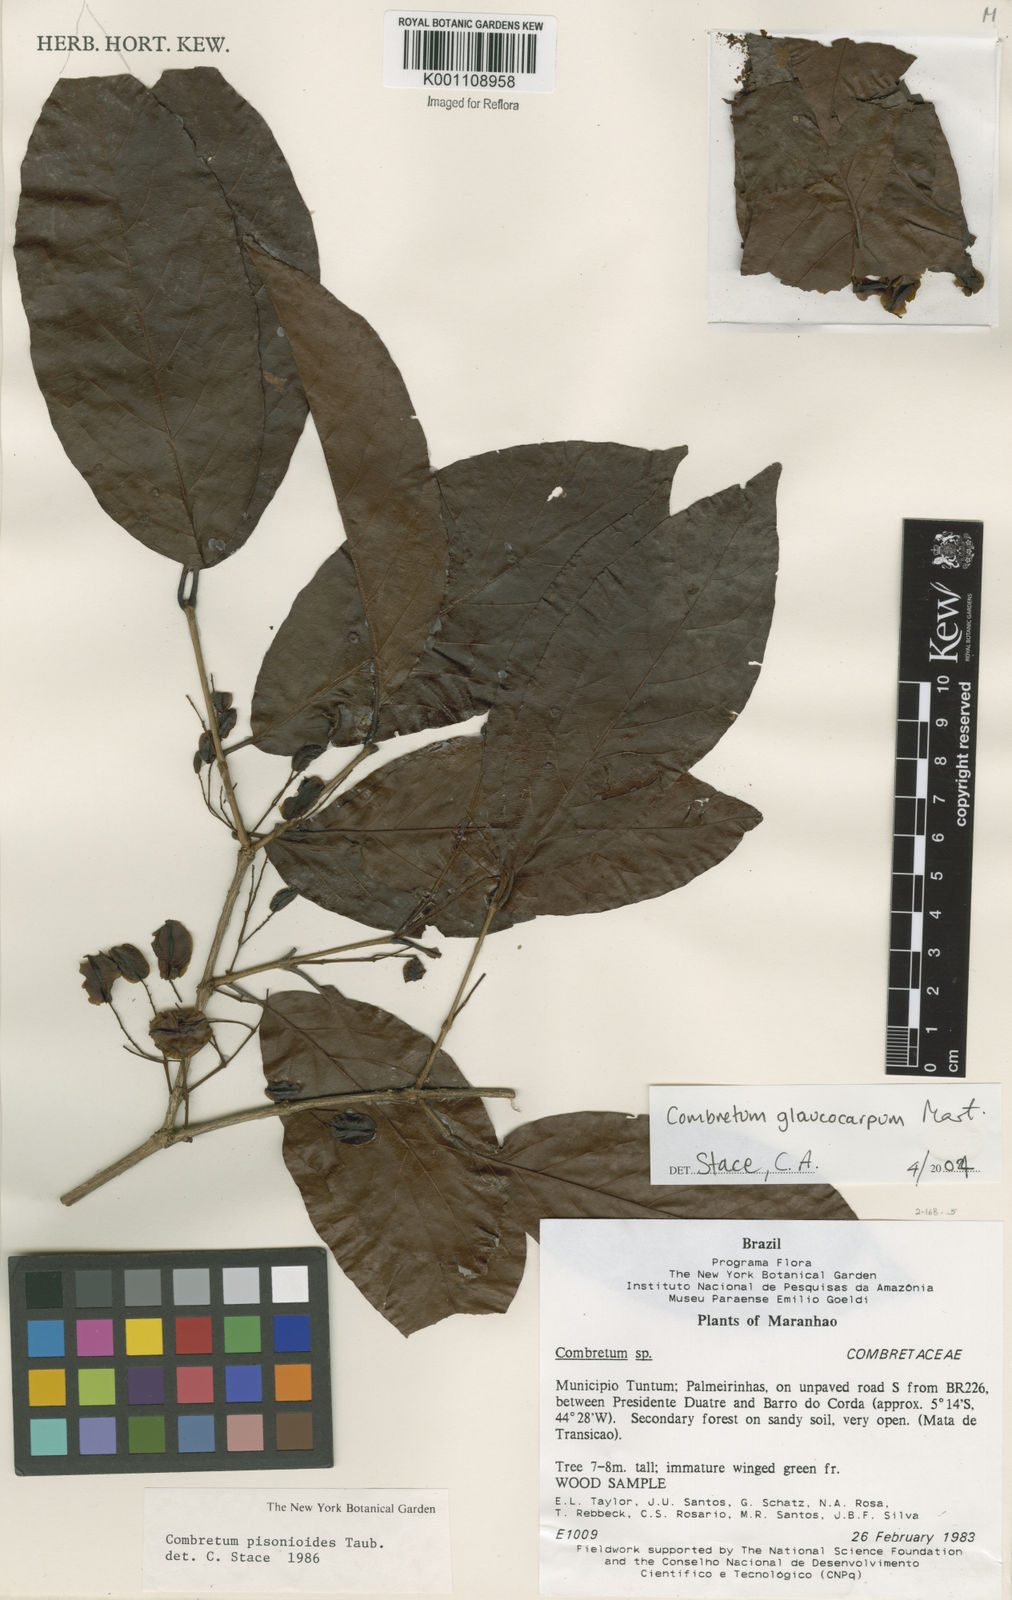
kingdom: Plantae
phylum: Tracheophyta
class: Magnoliopsida
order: Myrtales
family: Combretaceae
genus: Combretum
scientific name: Combretum glaucocarpum
